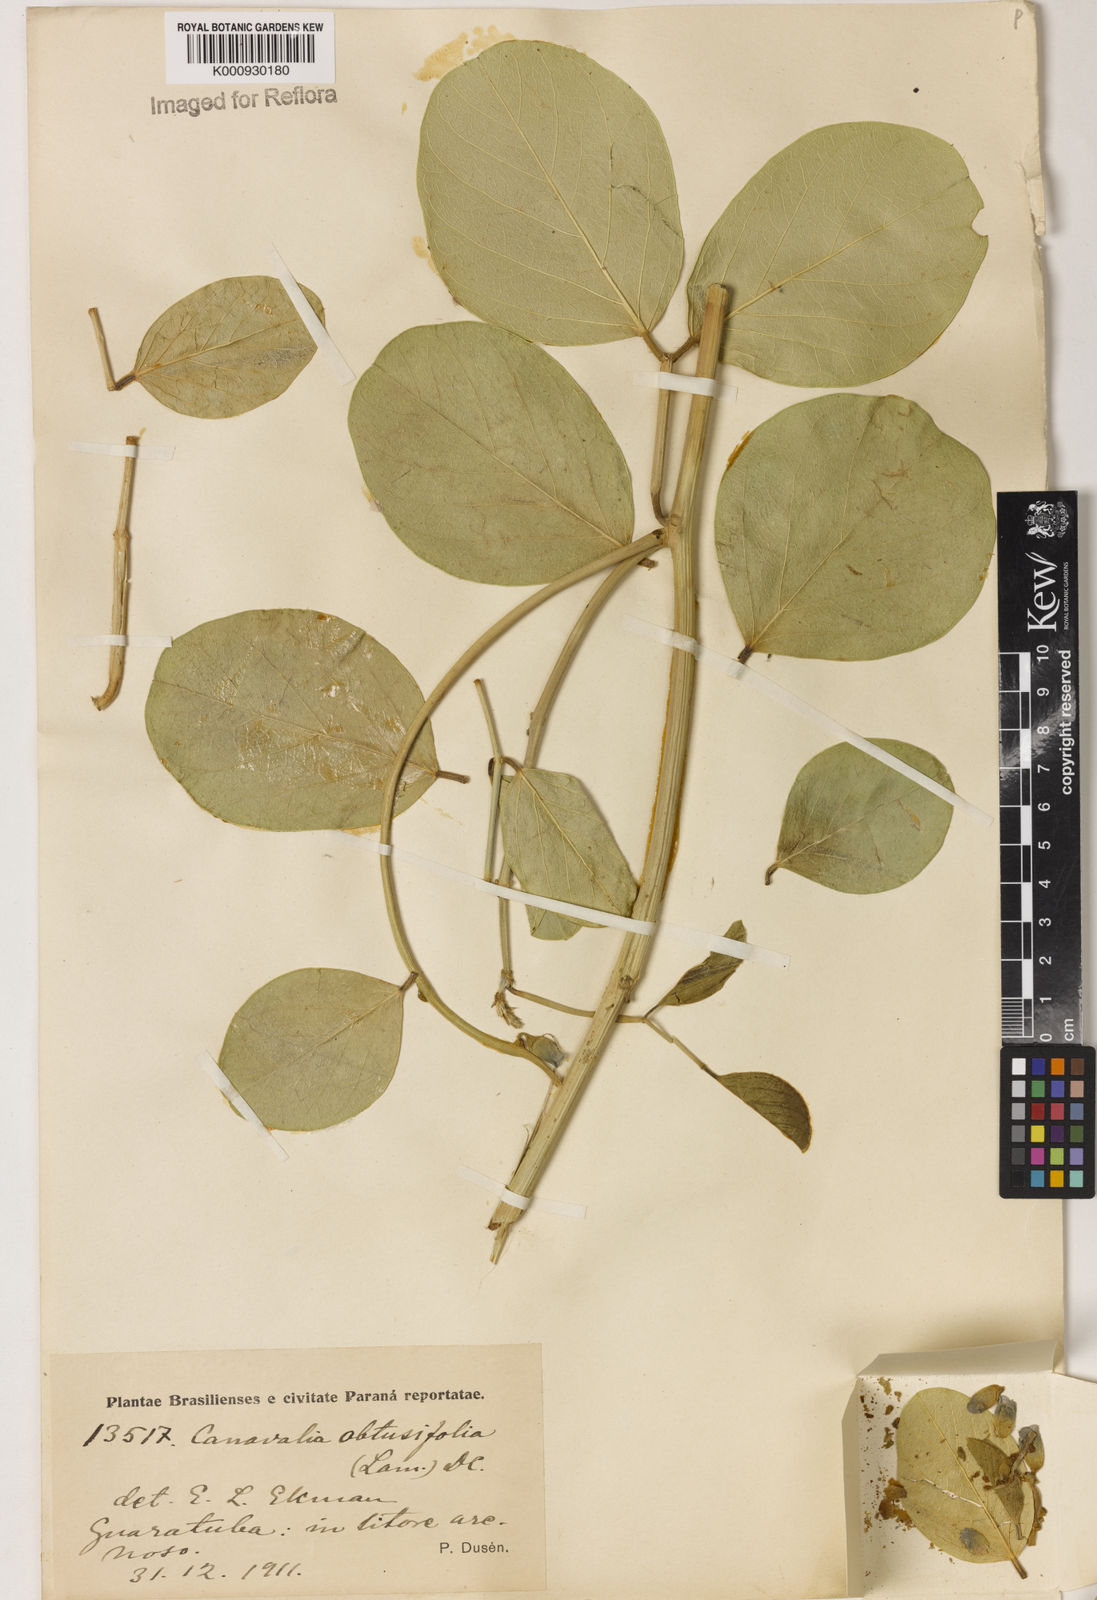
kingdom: Plantae
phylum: Tracheophyta
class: Magnoliopsida
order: Fabales
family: Fabaceae
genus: Canavalia
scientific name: Canavalia rosea
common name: Beach-bean
